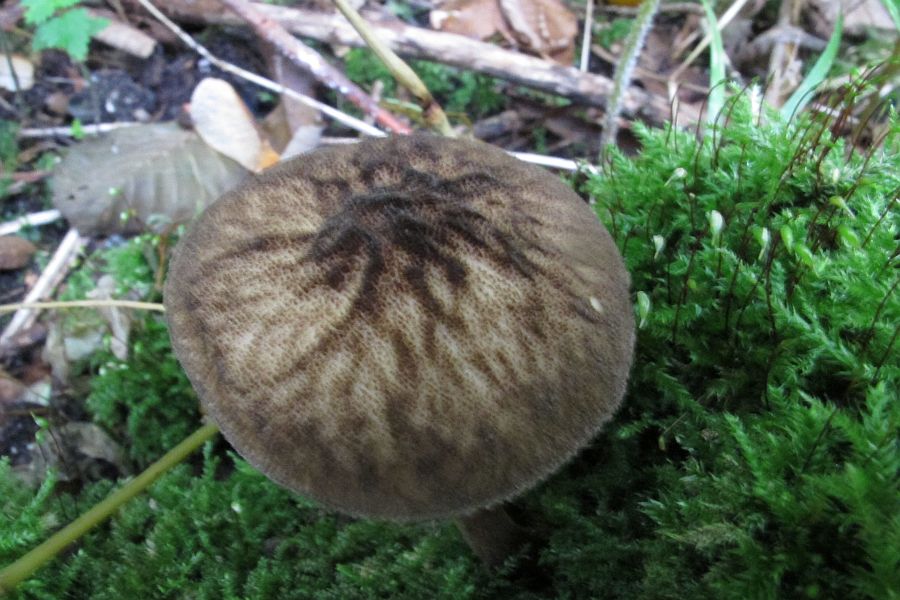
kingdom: Fungi
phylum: Basidiomycota
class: Agaricomycetes
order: Agaricales
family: Pluteaceae
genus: Pluteus
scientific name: Pluteus umbrosus
